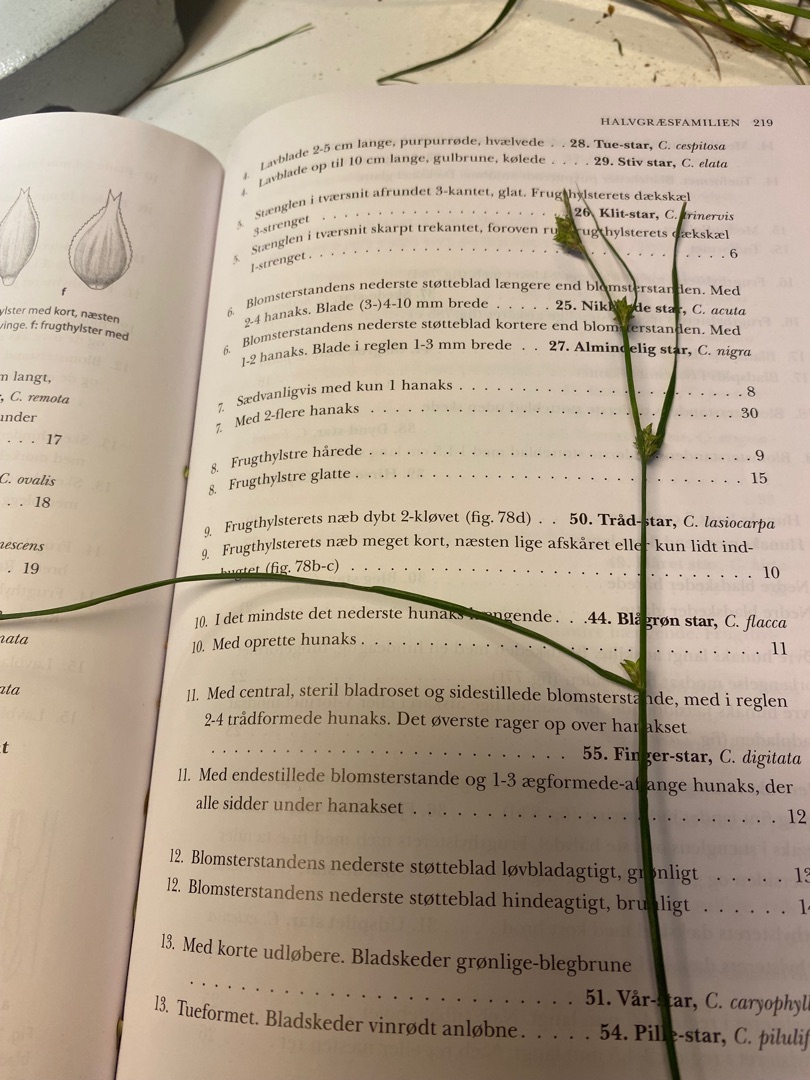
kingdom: Plantae
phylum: Tracheophyta
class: Liliopsida
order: Poales
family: Cyperaceae
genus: Carex
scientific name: Carex remota
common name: Akselblomstret star
